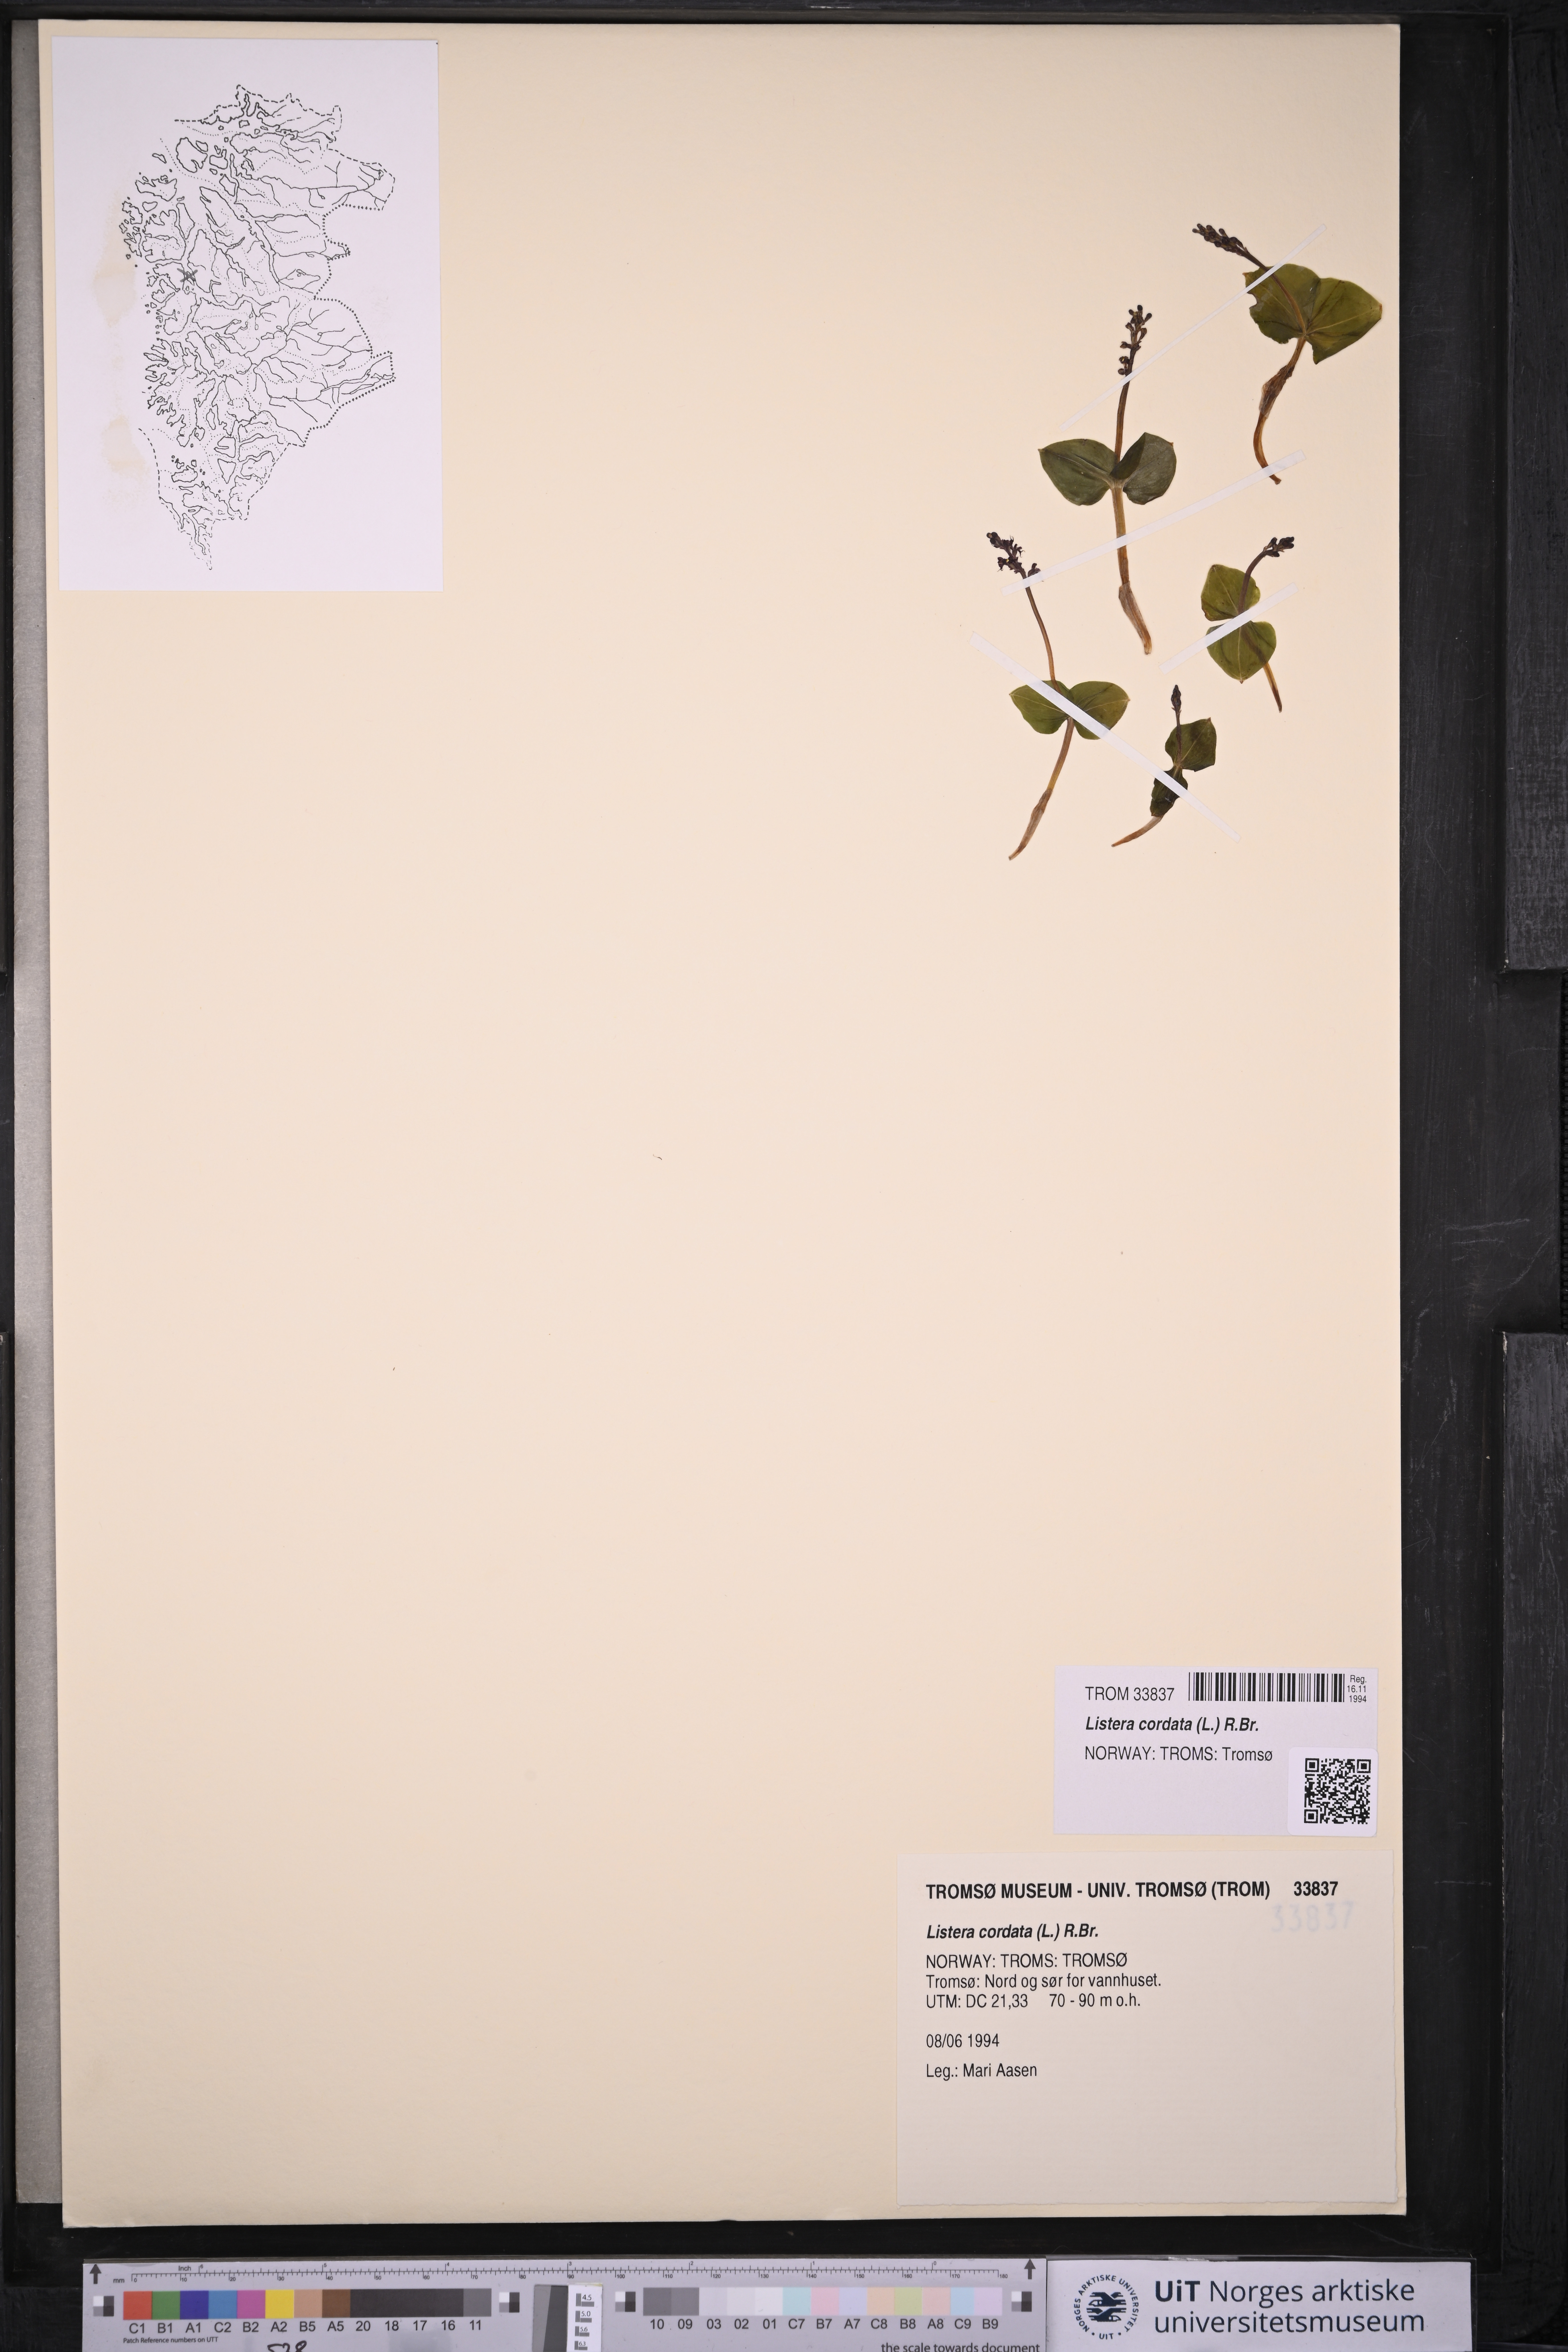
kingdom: Plantae
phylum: Tracheophyta
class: Liliopsida
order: Asparagales
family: Orchidaceae
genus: Neottia
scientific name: Neottia cordata
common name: Lesser twayblade
